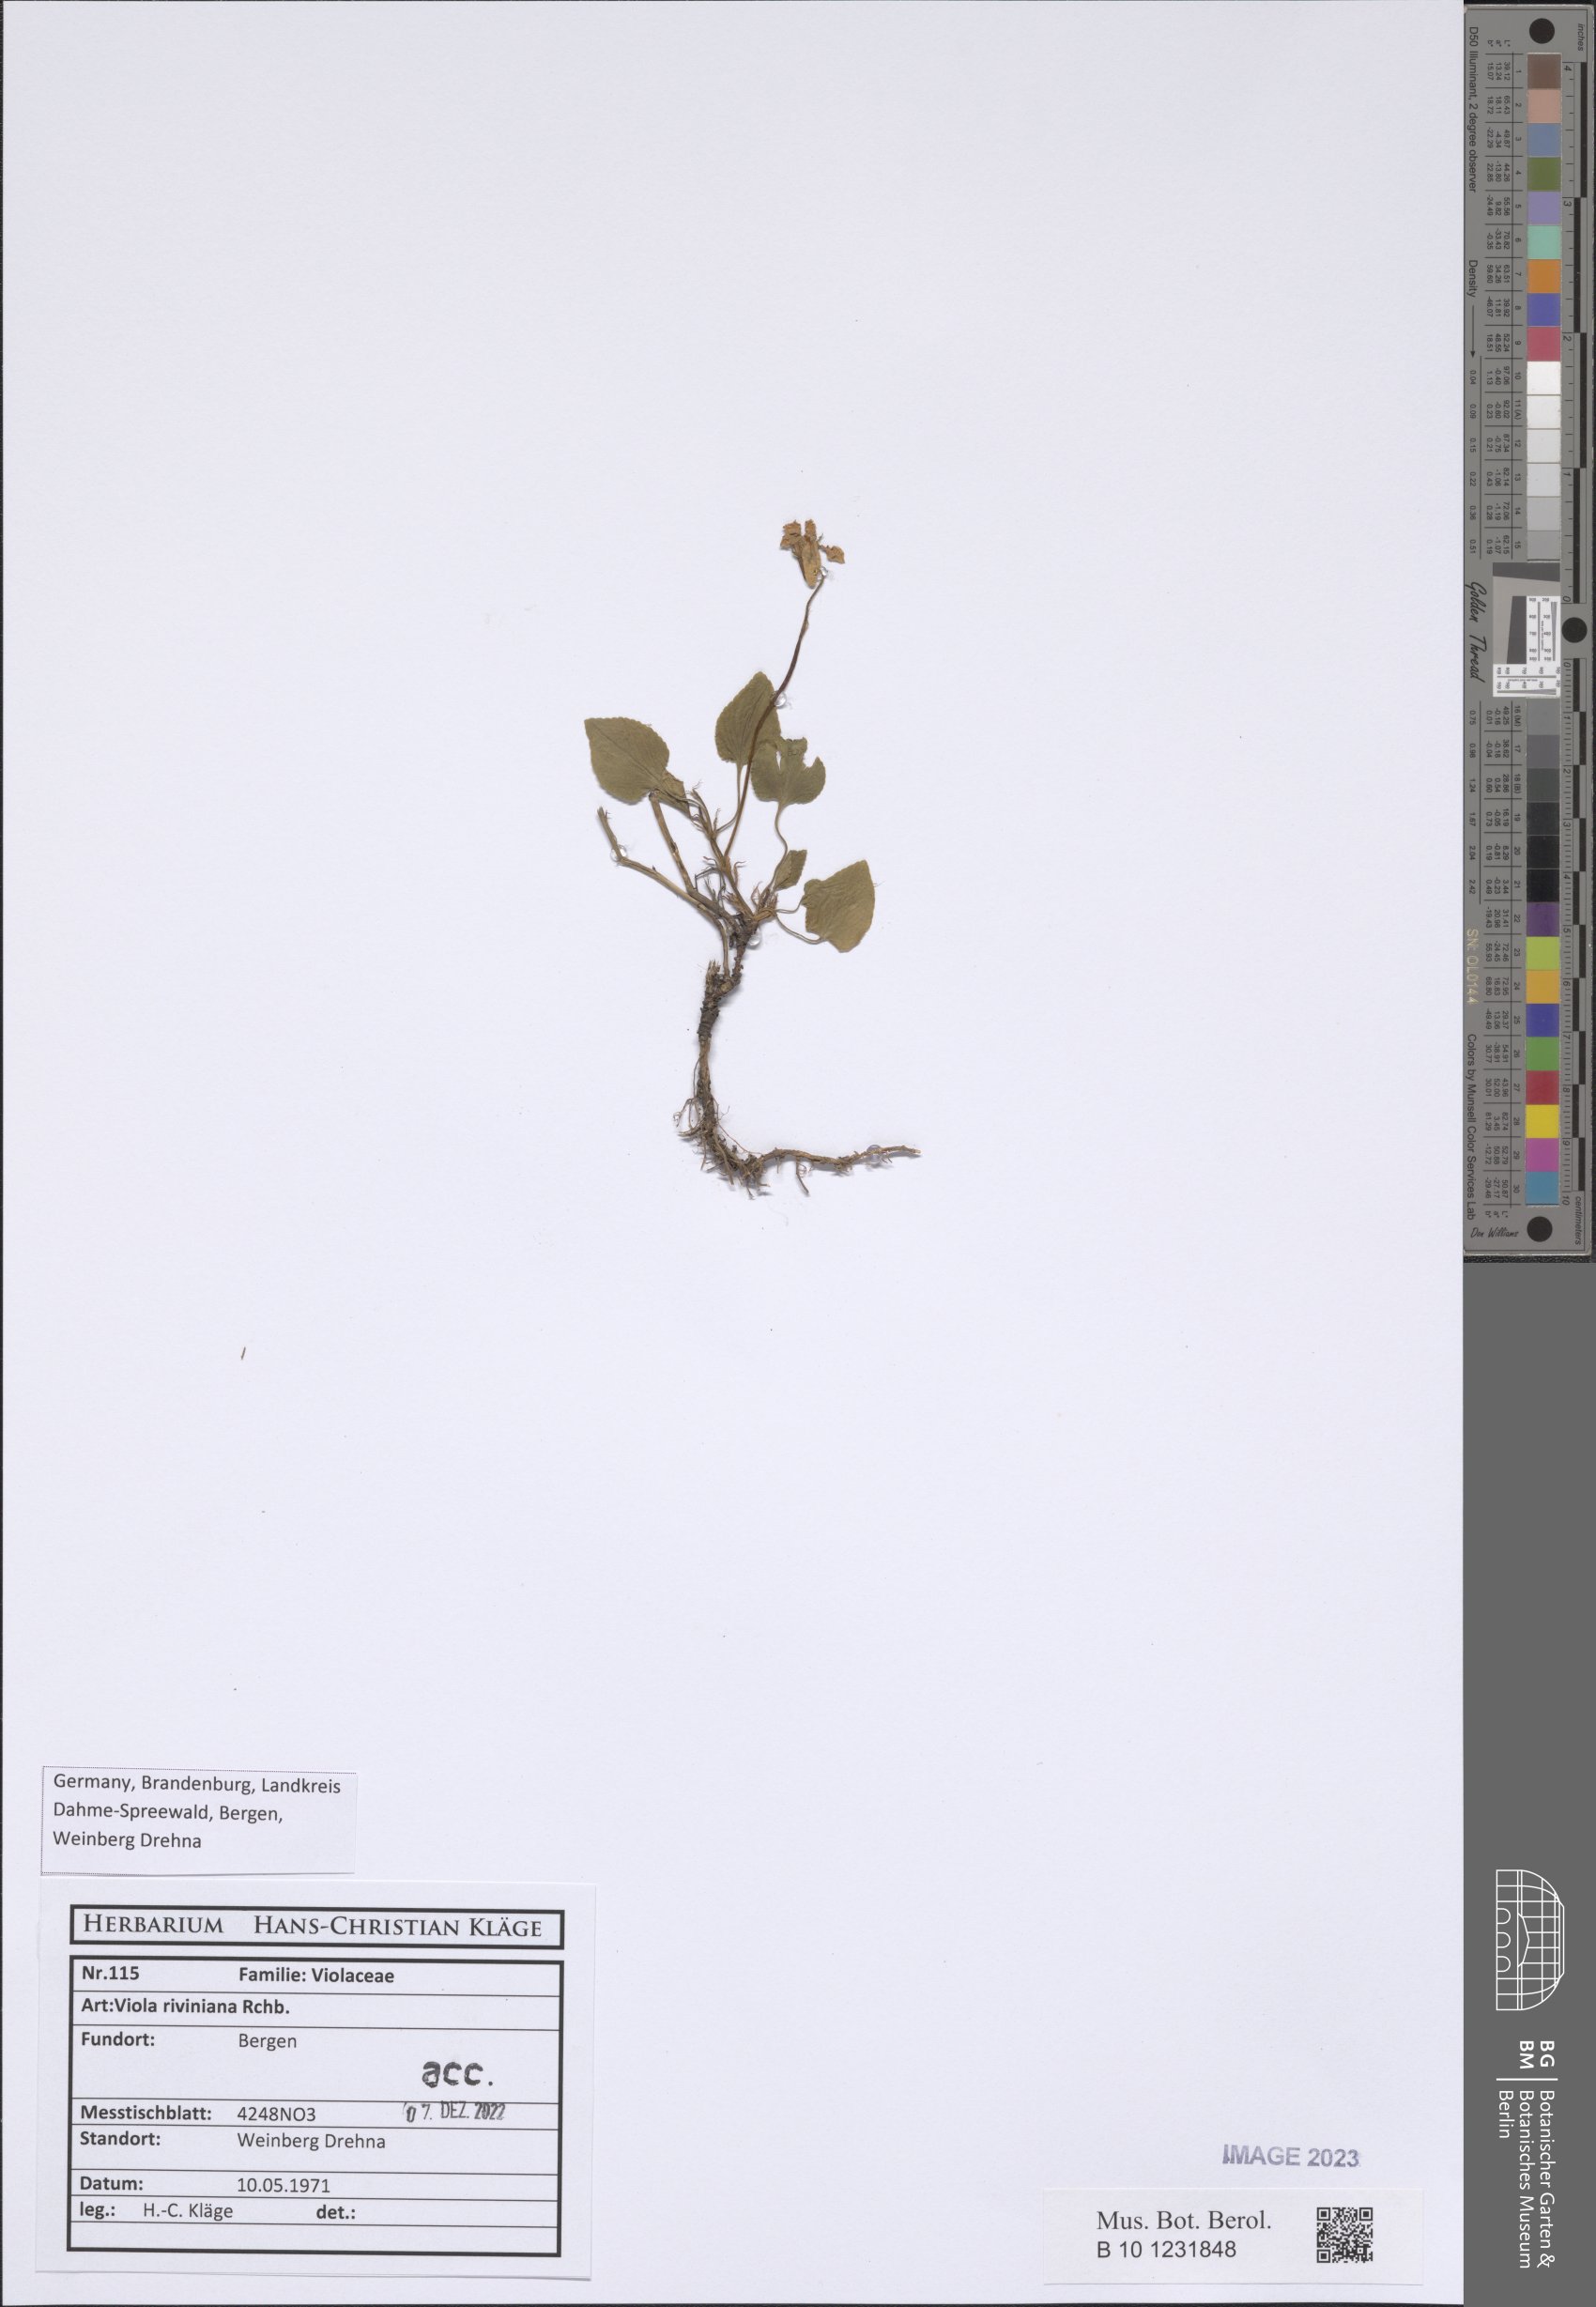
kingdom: Plantae
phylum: Tracheophyta
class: Magnoliopsida
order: Malpighiales
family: Violaceae
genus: Viola
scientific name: Viola riviniana
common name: Common dog-violet
